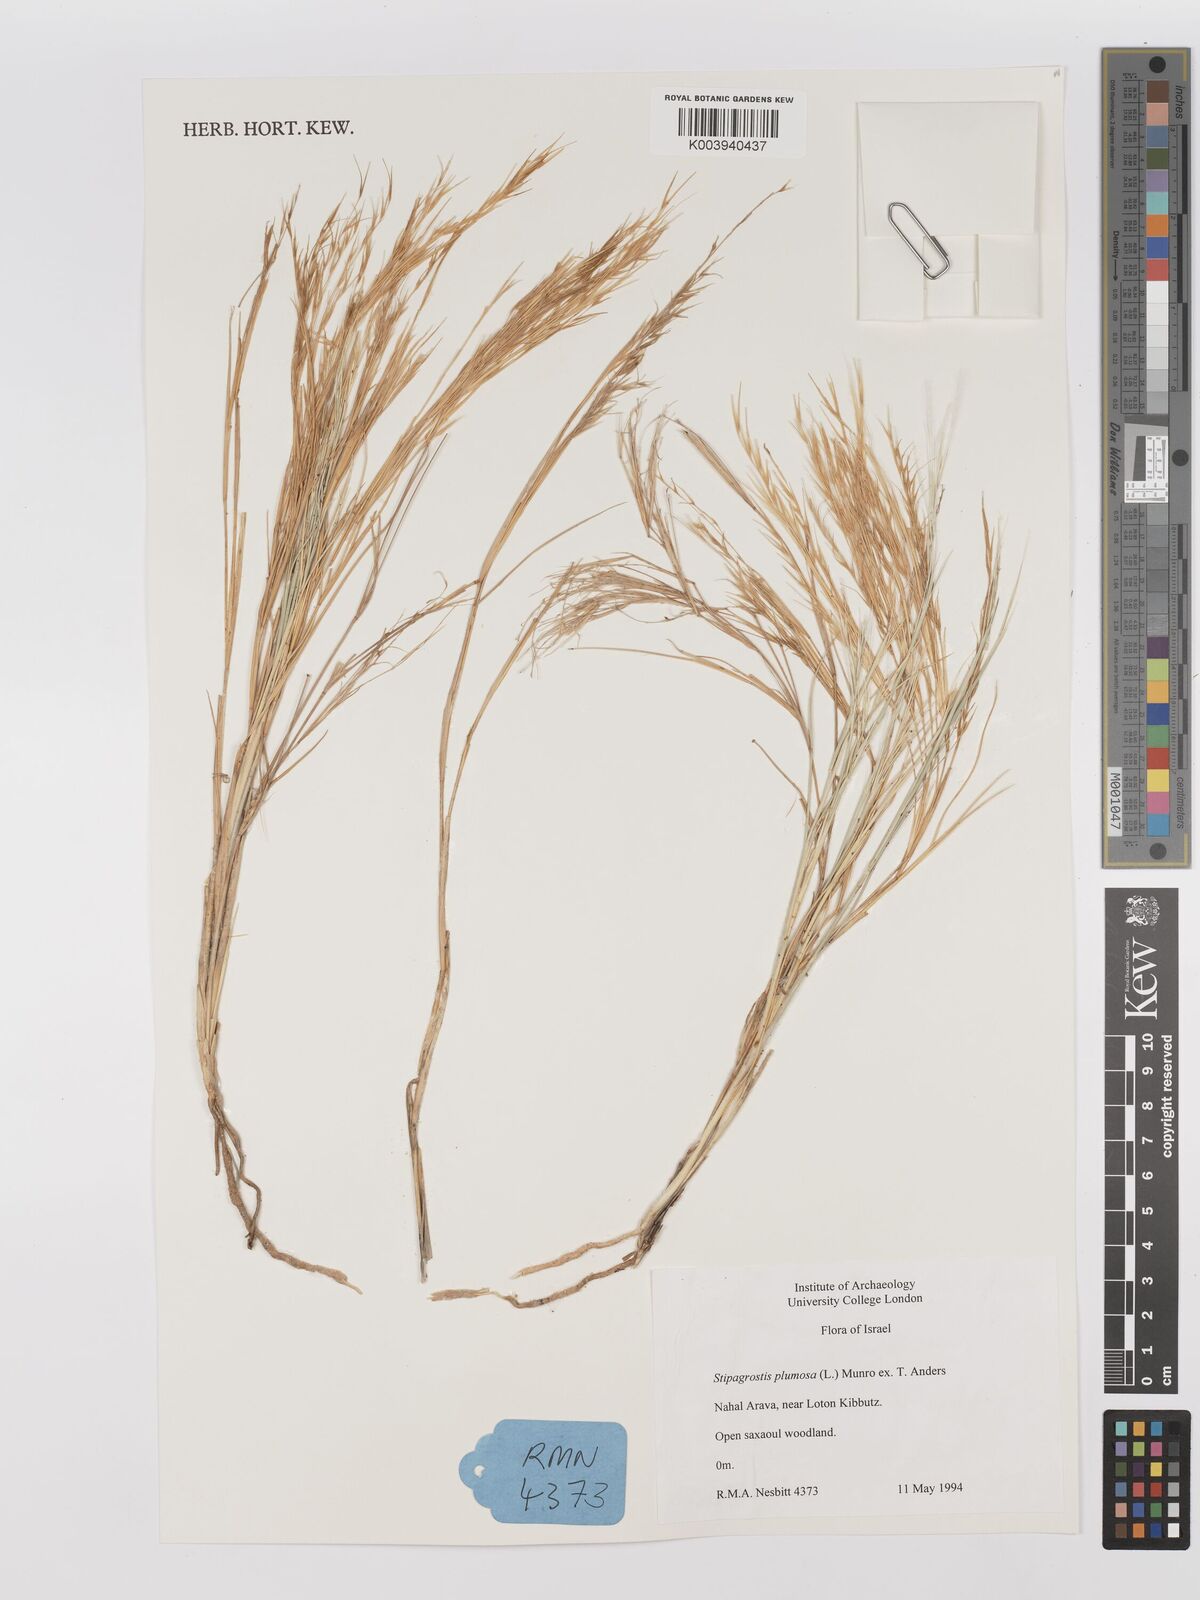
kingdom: Plantae
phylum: Tracheophyta
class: Liliopsida
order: Poales
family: Poaceae
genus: Stipagrostis
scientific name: Stipagrostis plumosa
